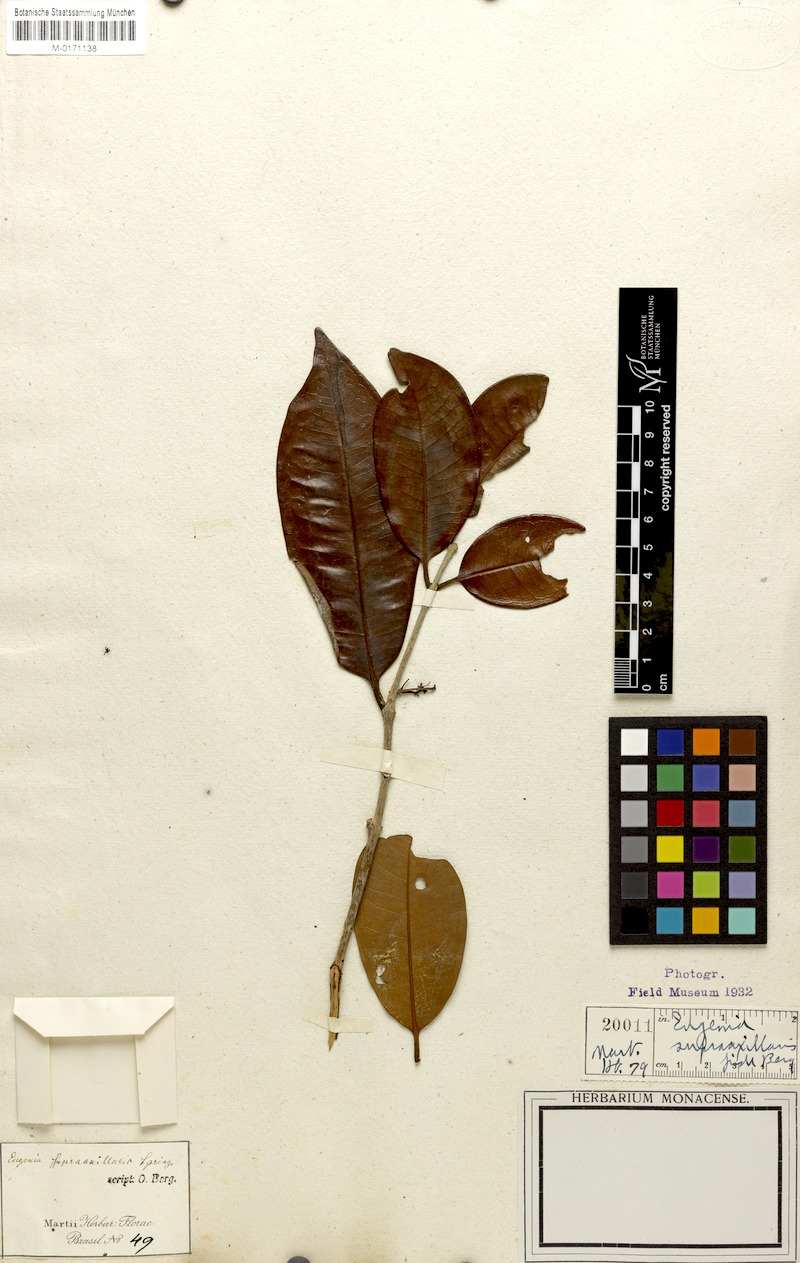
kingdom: Plantae
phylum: Tracheophyta
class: Magnoliopsida
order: Myrtales
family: Myrtaceae
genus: Eugenia
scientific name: Eugenia supraaxillaris
